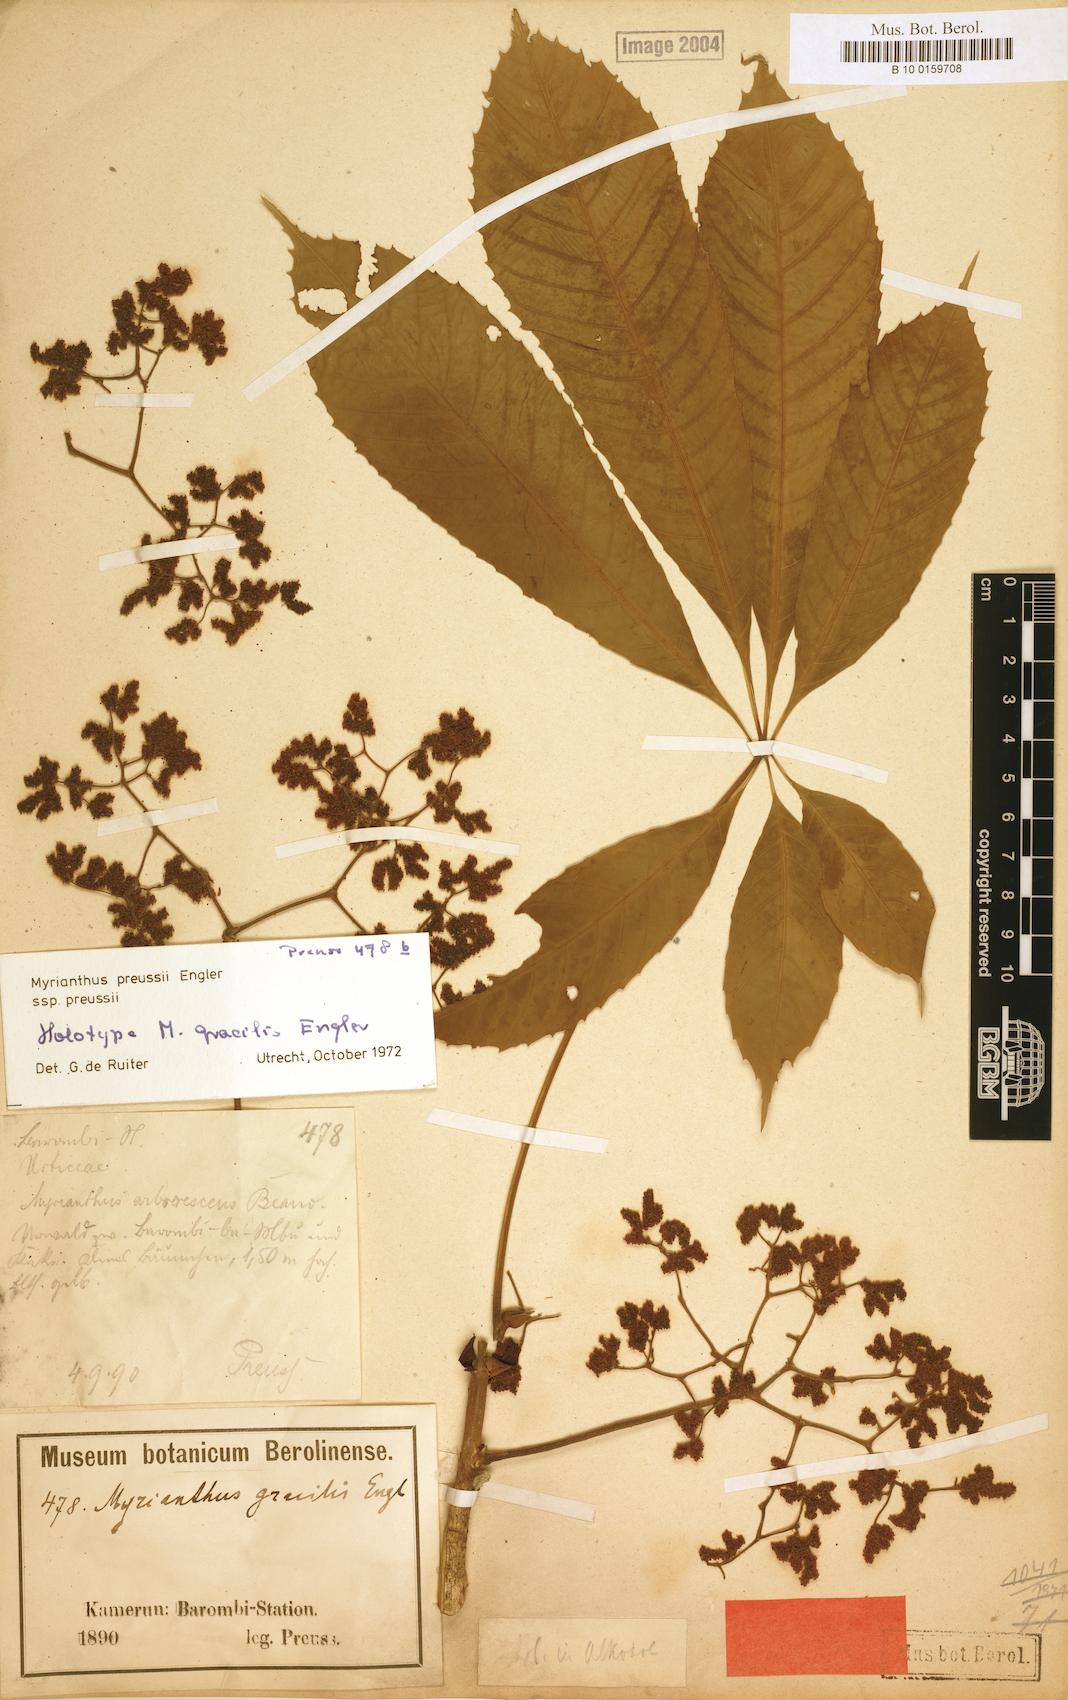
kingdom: Plantae
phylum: Tracheophyta
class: Magnoliopsida
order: Rosales
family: Urticaceae
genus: Myrianthus
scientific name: Myrianthus preussii
